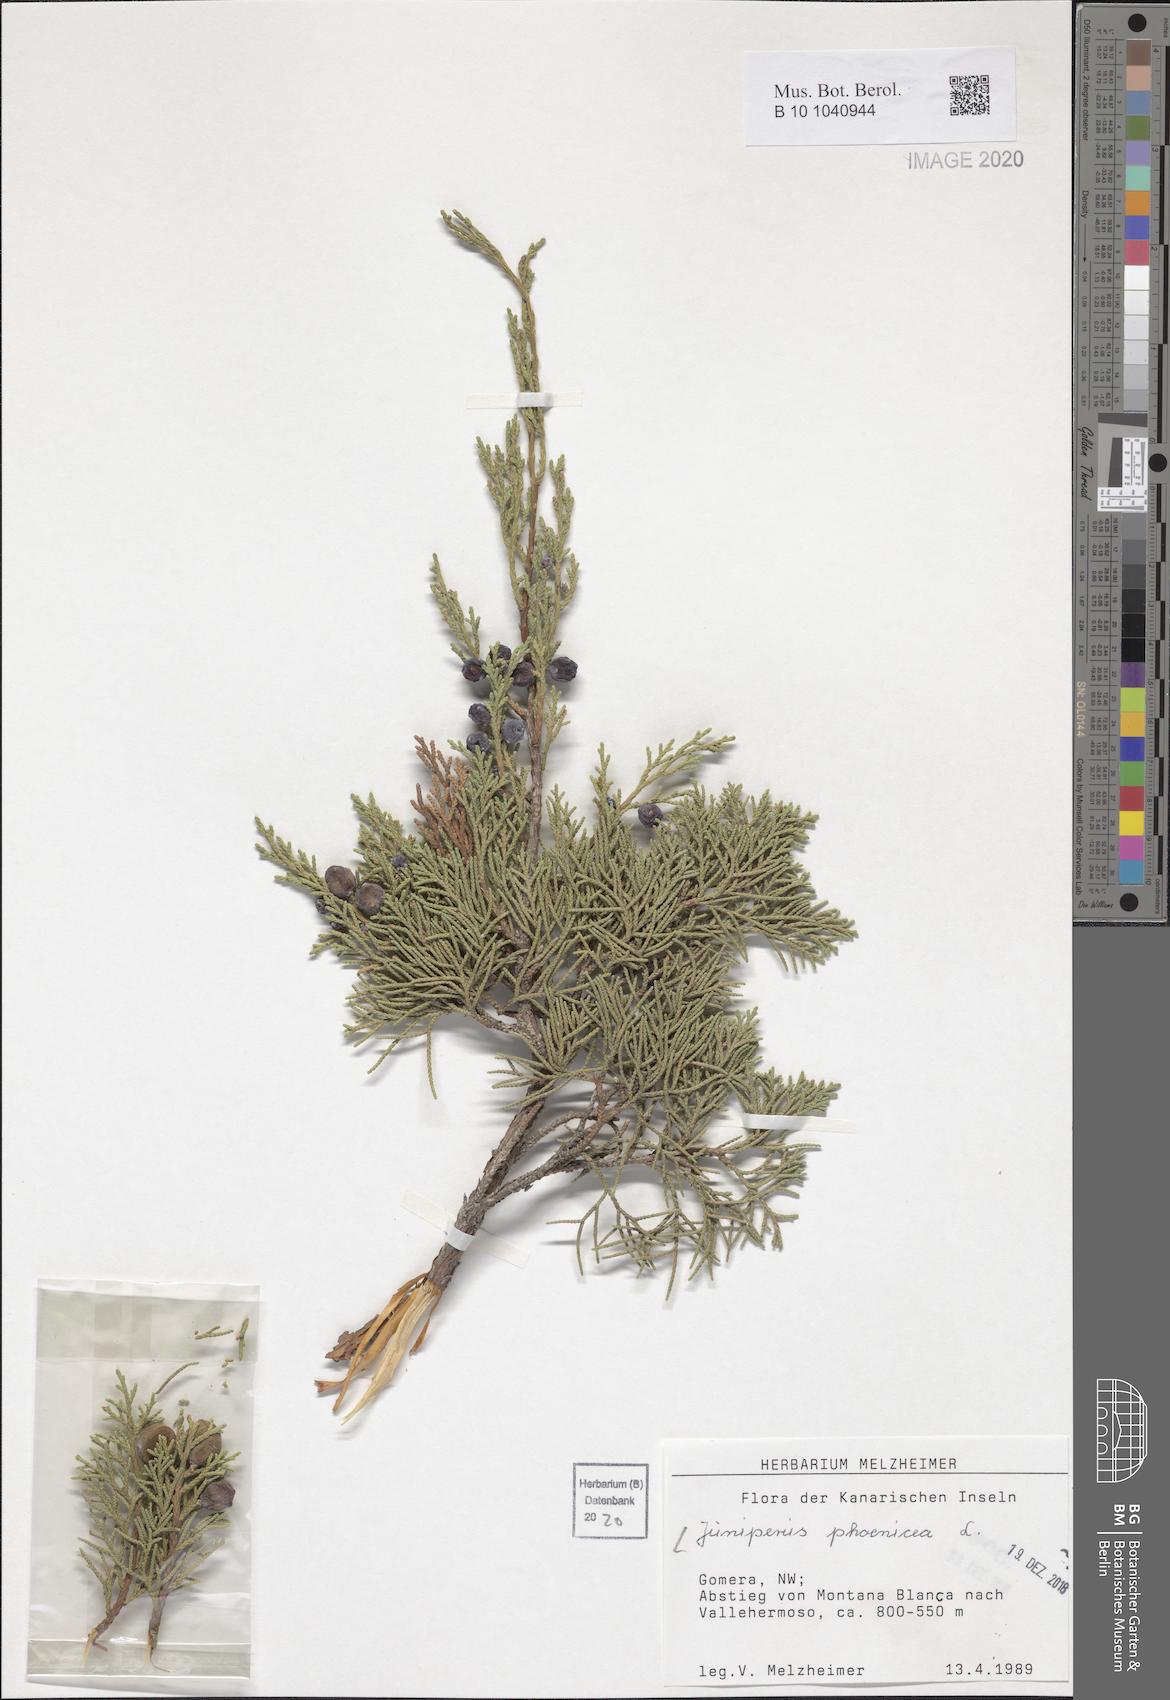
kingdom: Plantae
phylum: Tracheophyta
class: Pinopsida
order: Pinales
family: Cupressaceae
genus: Juniperus
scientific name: Juniperus phoenicea
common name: Phoenician juniper
